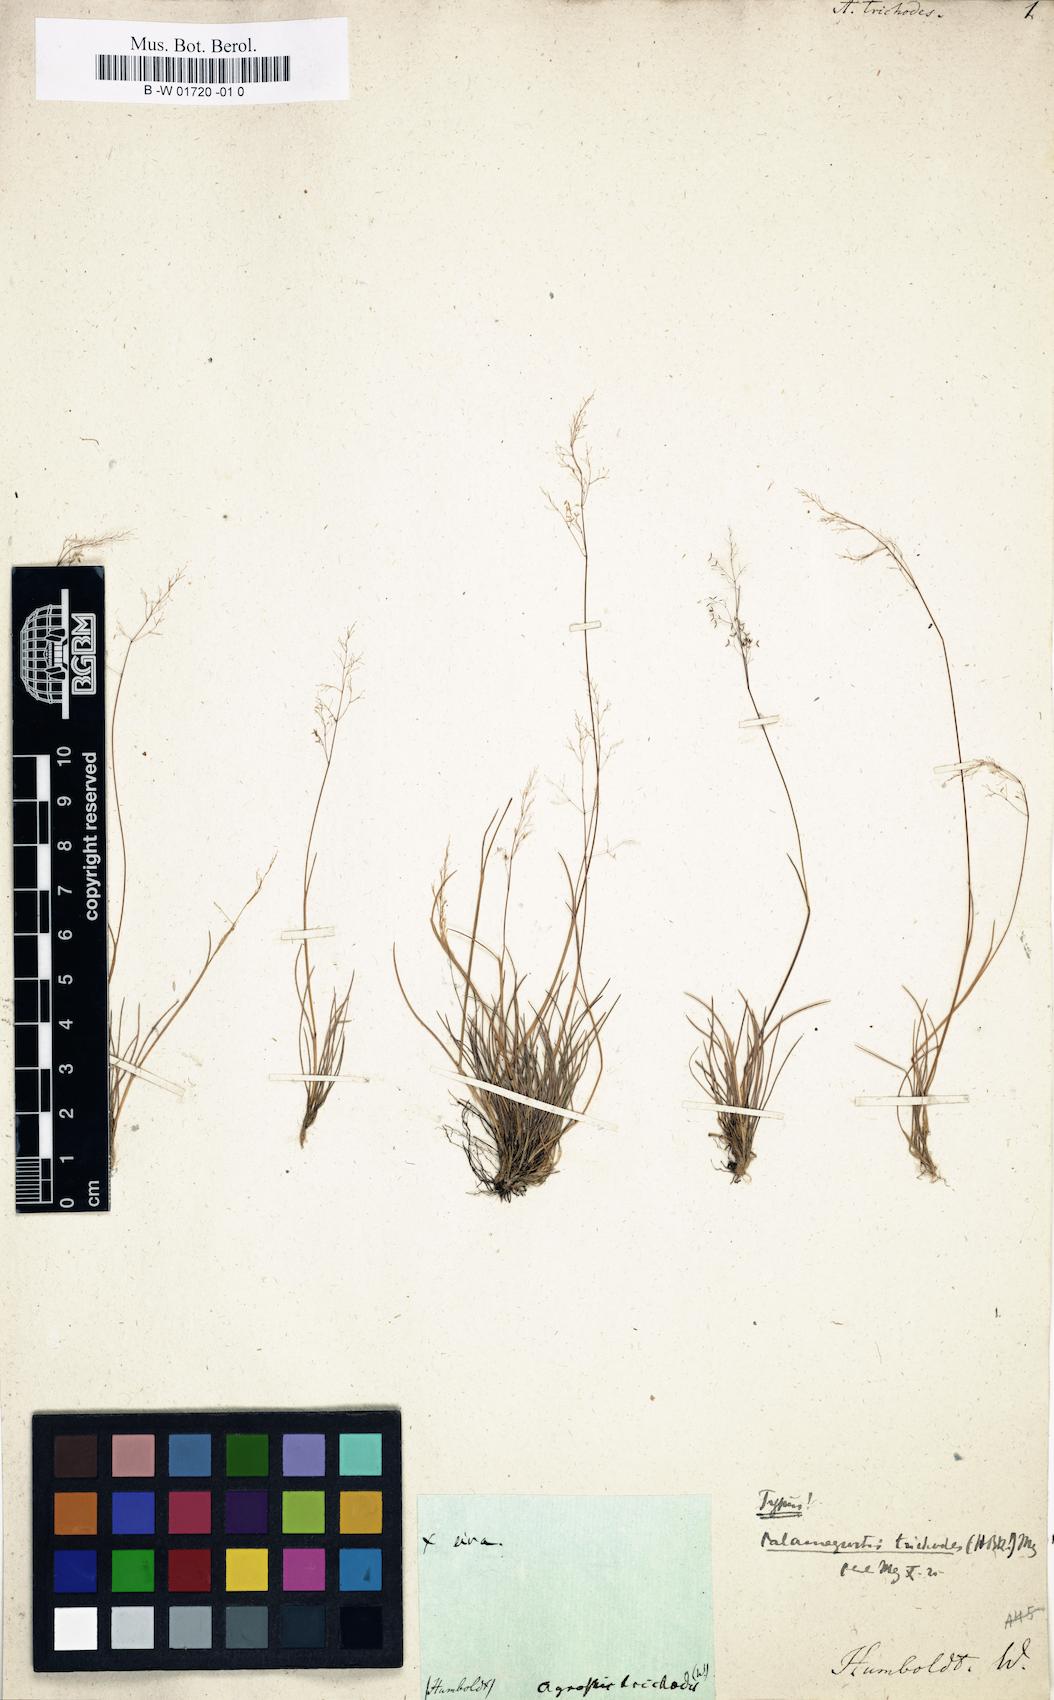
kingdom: Plantae
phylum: Tracheophyta
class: Liliopsida
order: Poales
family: Poaceae
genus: Podagrostis
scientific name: Podagrostis trichodes
